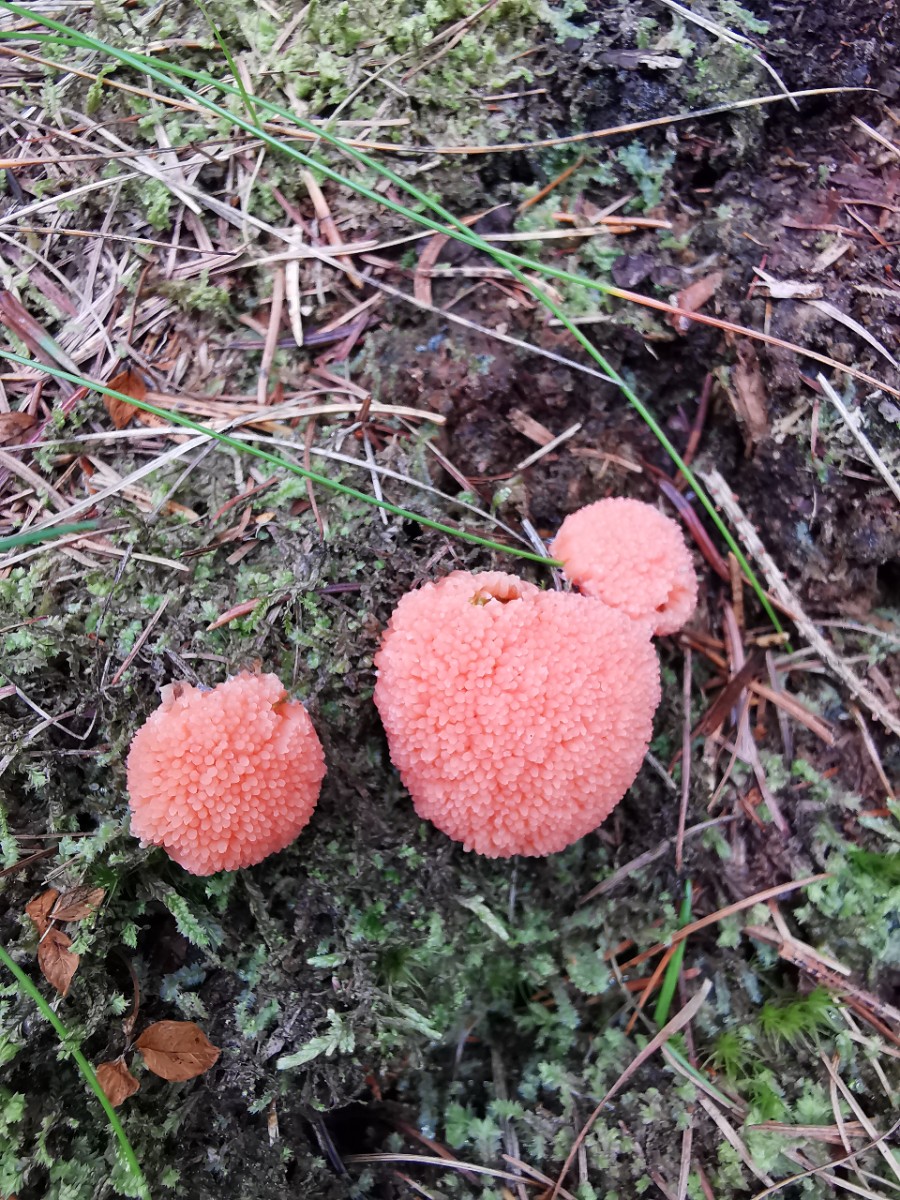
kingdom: Protozoa
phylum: Mycetozoa
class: Myxomycetes
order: Cribrariales
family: Tubiferaceae
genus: Tubifera
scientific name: Tubifera ferruginosa
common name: kanel-støvrør
